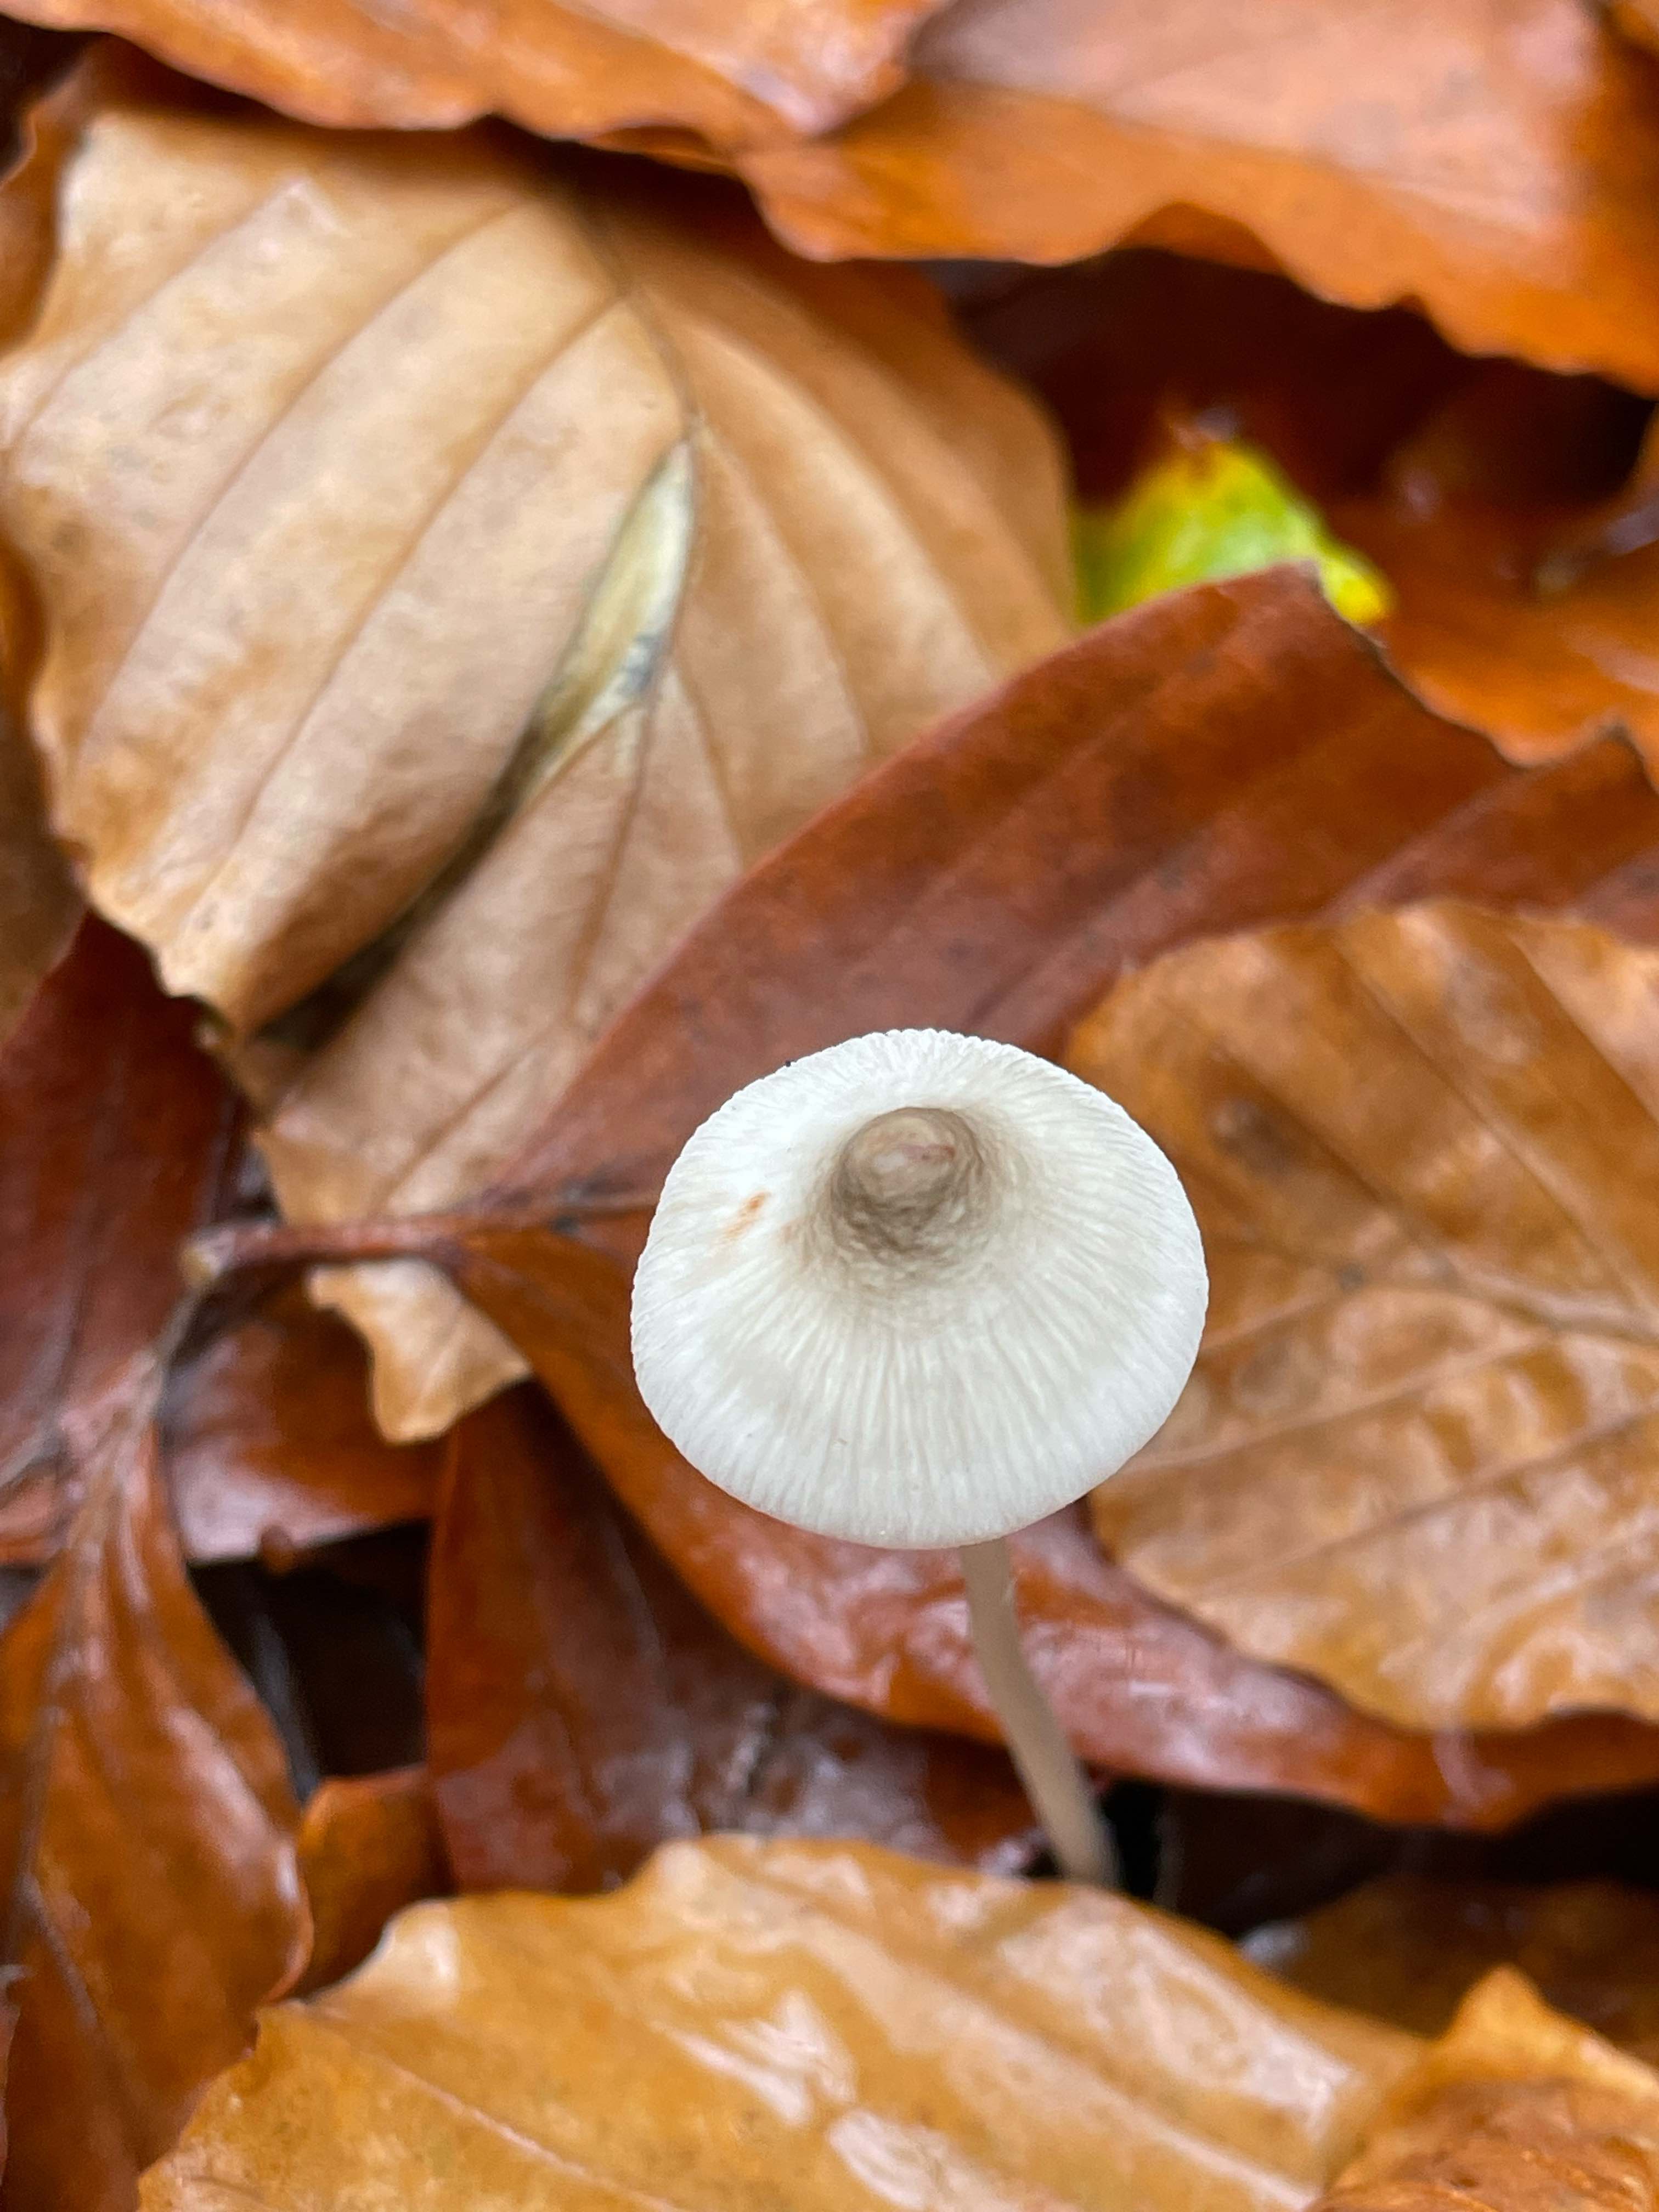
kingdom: Fungi
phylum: Basidiomycota
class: Agaricomycetes
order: Agaricales
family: Mycenaceae
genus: Mycena
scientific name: Mycena
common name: huesvamp
